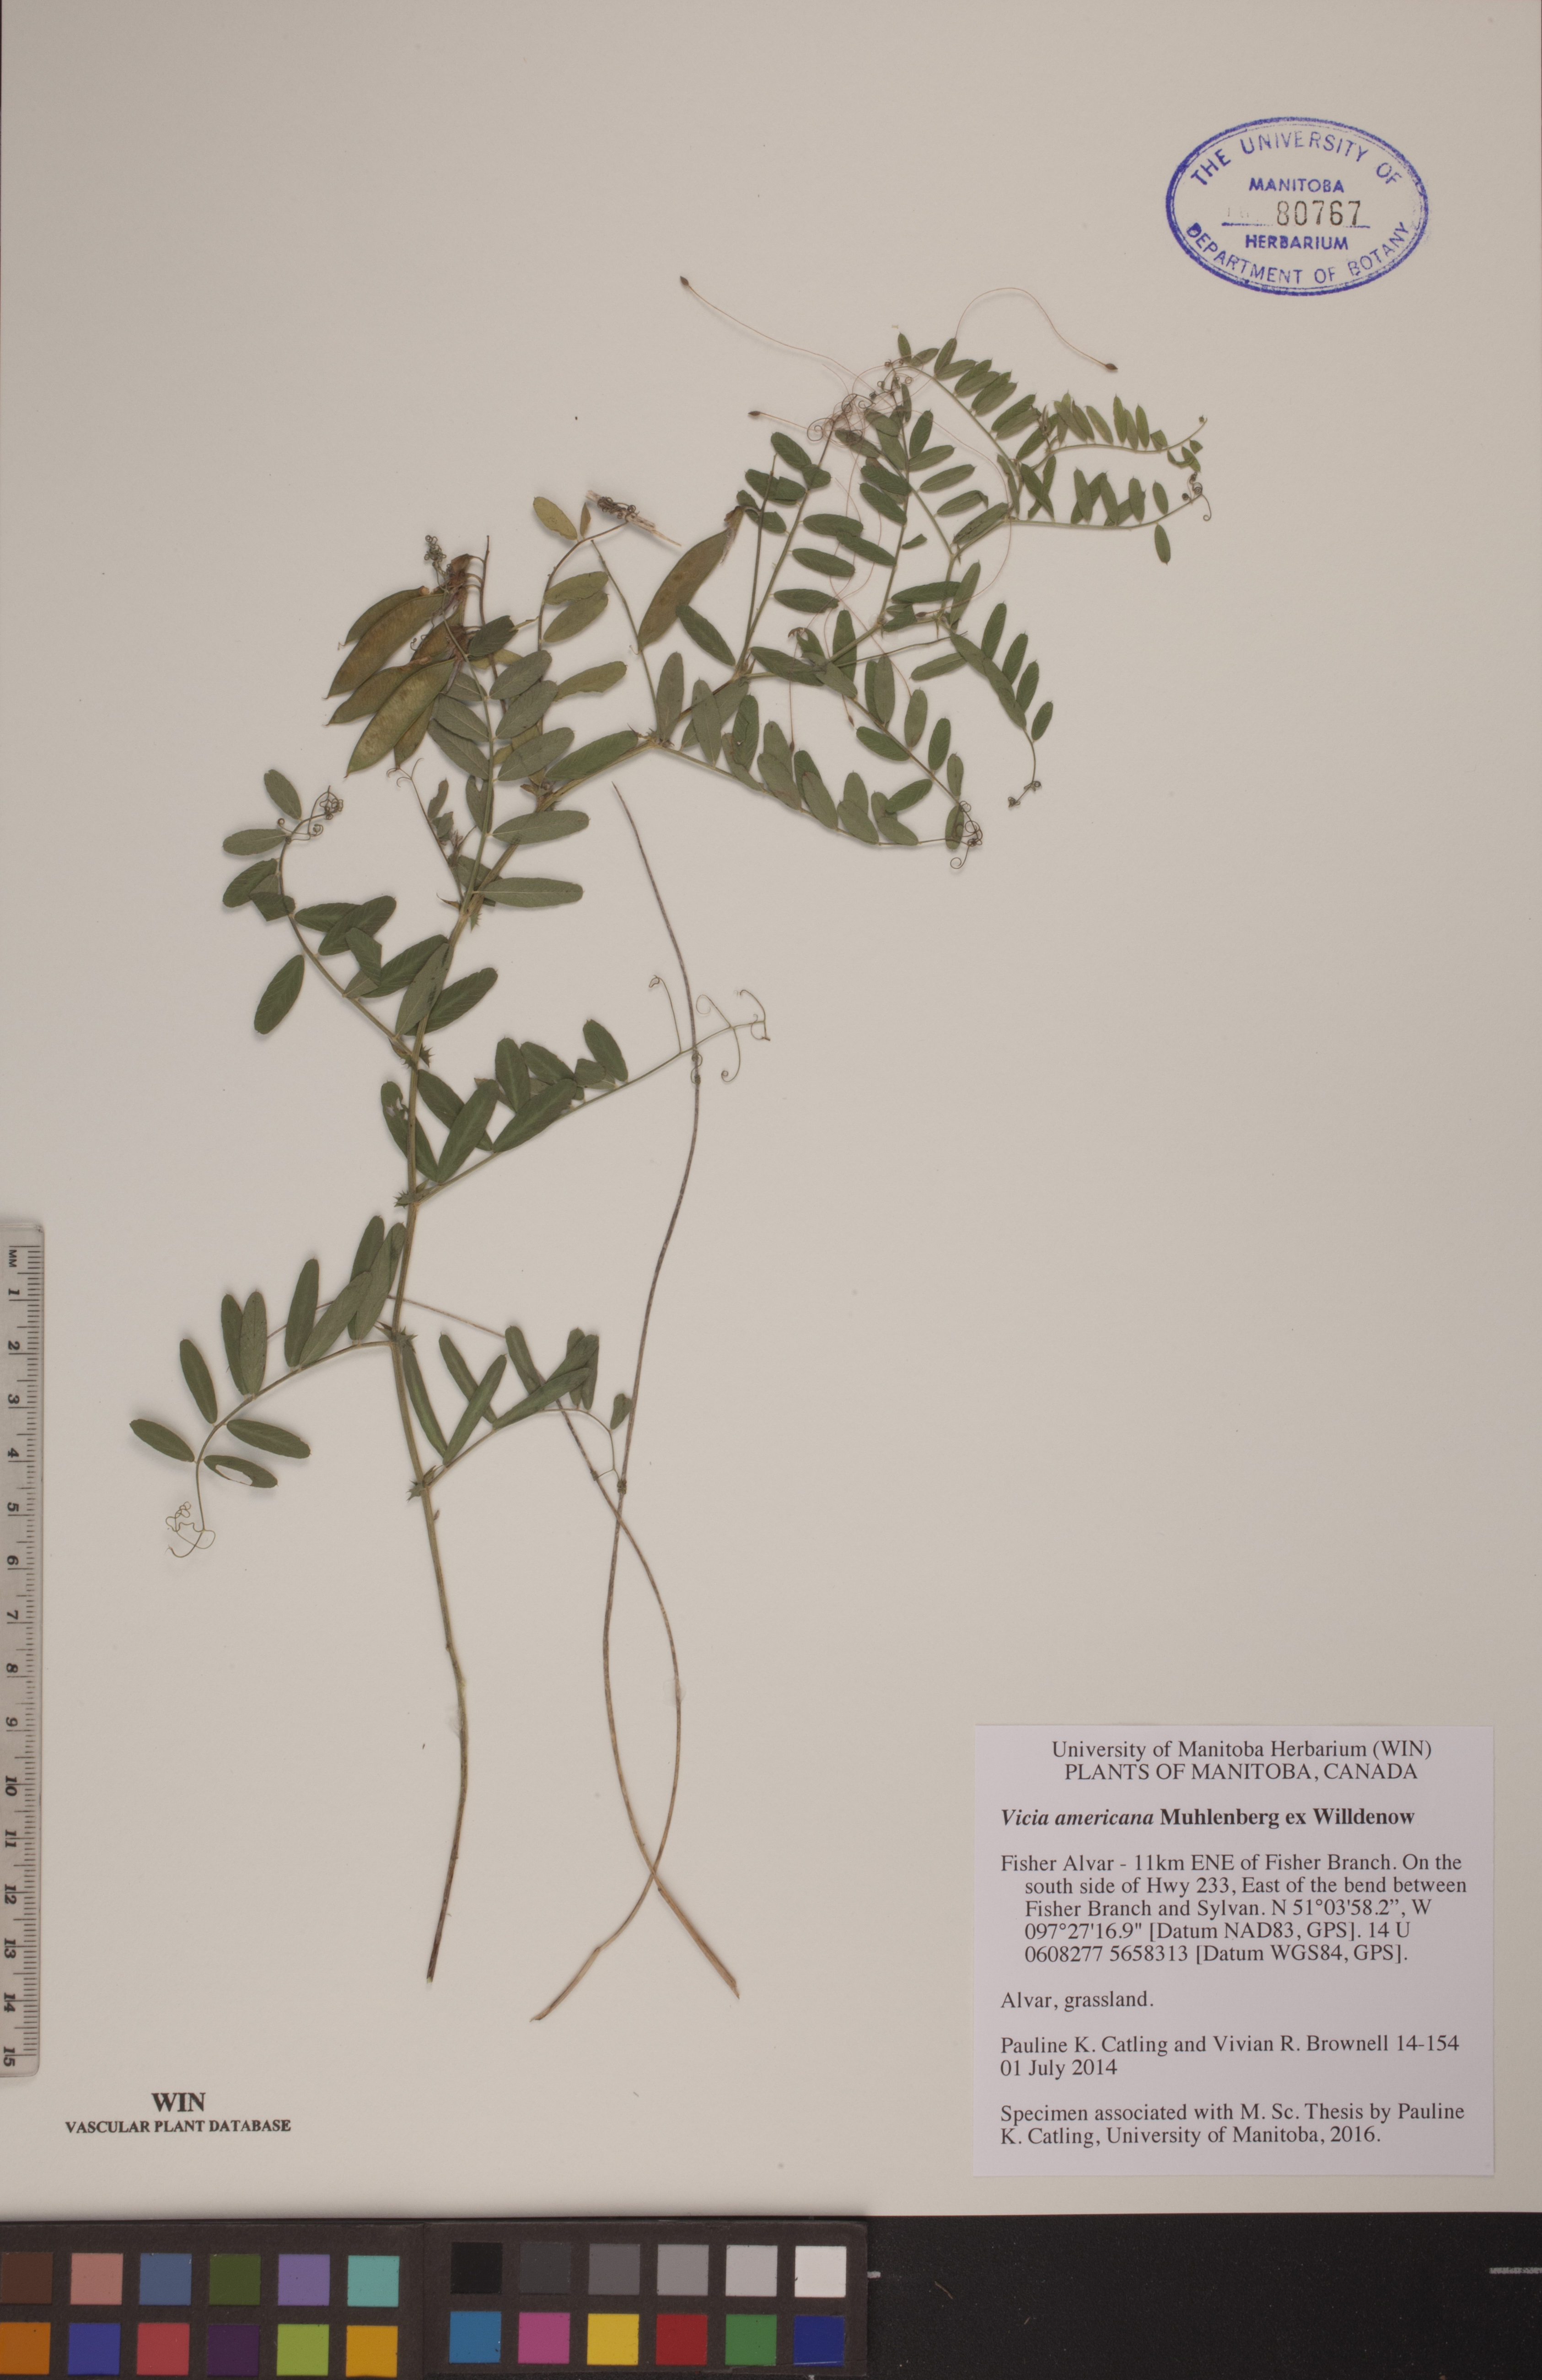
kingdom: Plantae
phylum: Tracheophyta
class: Magnoliopsida
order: Fabales
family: Fabaceae
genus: Vicia
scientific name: Vicia americana
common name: American vetch
